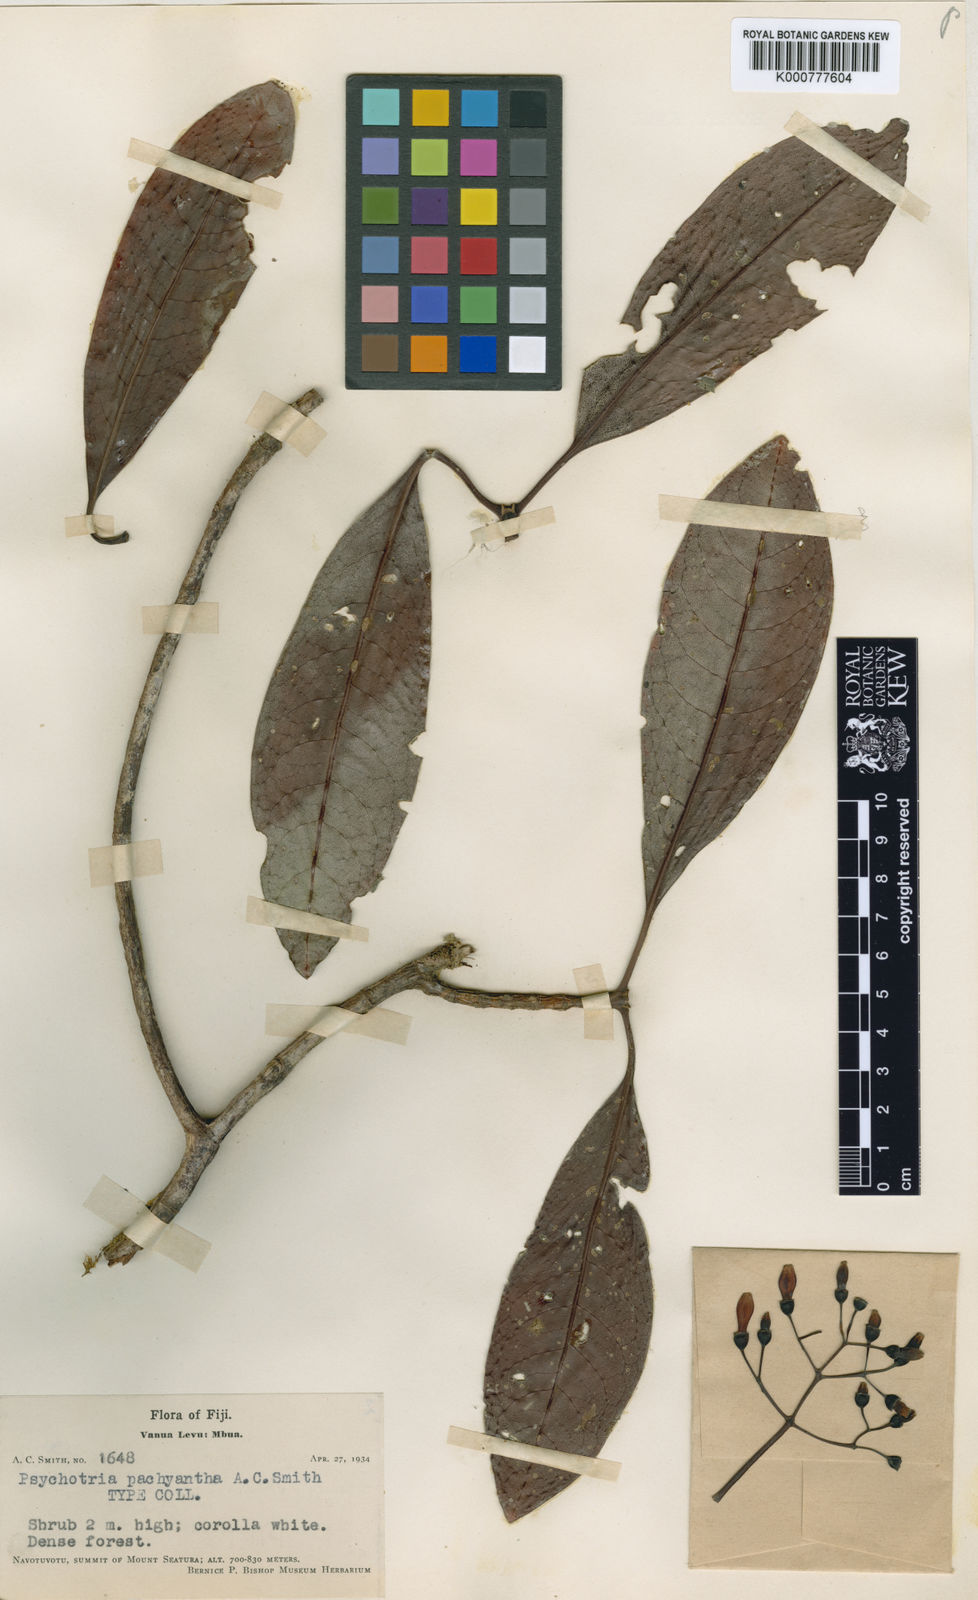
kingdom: Plantae
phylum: Tracheophyta
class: Magnoliopsida
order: Gentianales
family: Rubiaceae
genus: Psychotria
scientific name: Psychotria pachyantha
